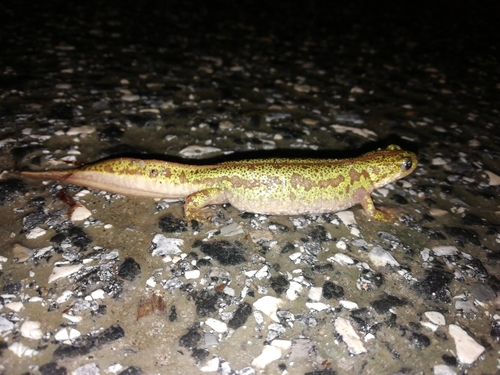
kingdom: Animalia
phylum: Chordata
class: Amphibia
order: Caudata
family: Salamandridae
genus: Triturus
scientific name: Triturus pygmaeus
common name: Southern marbled newt
